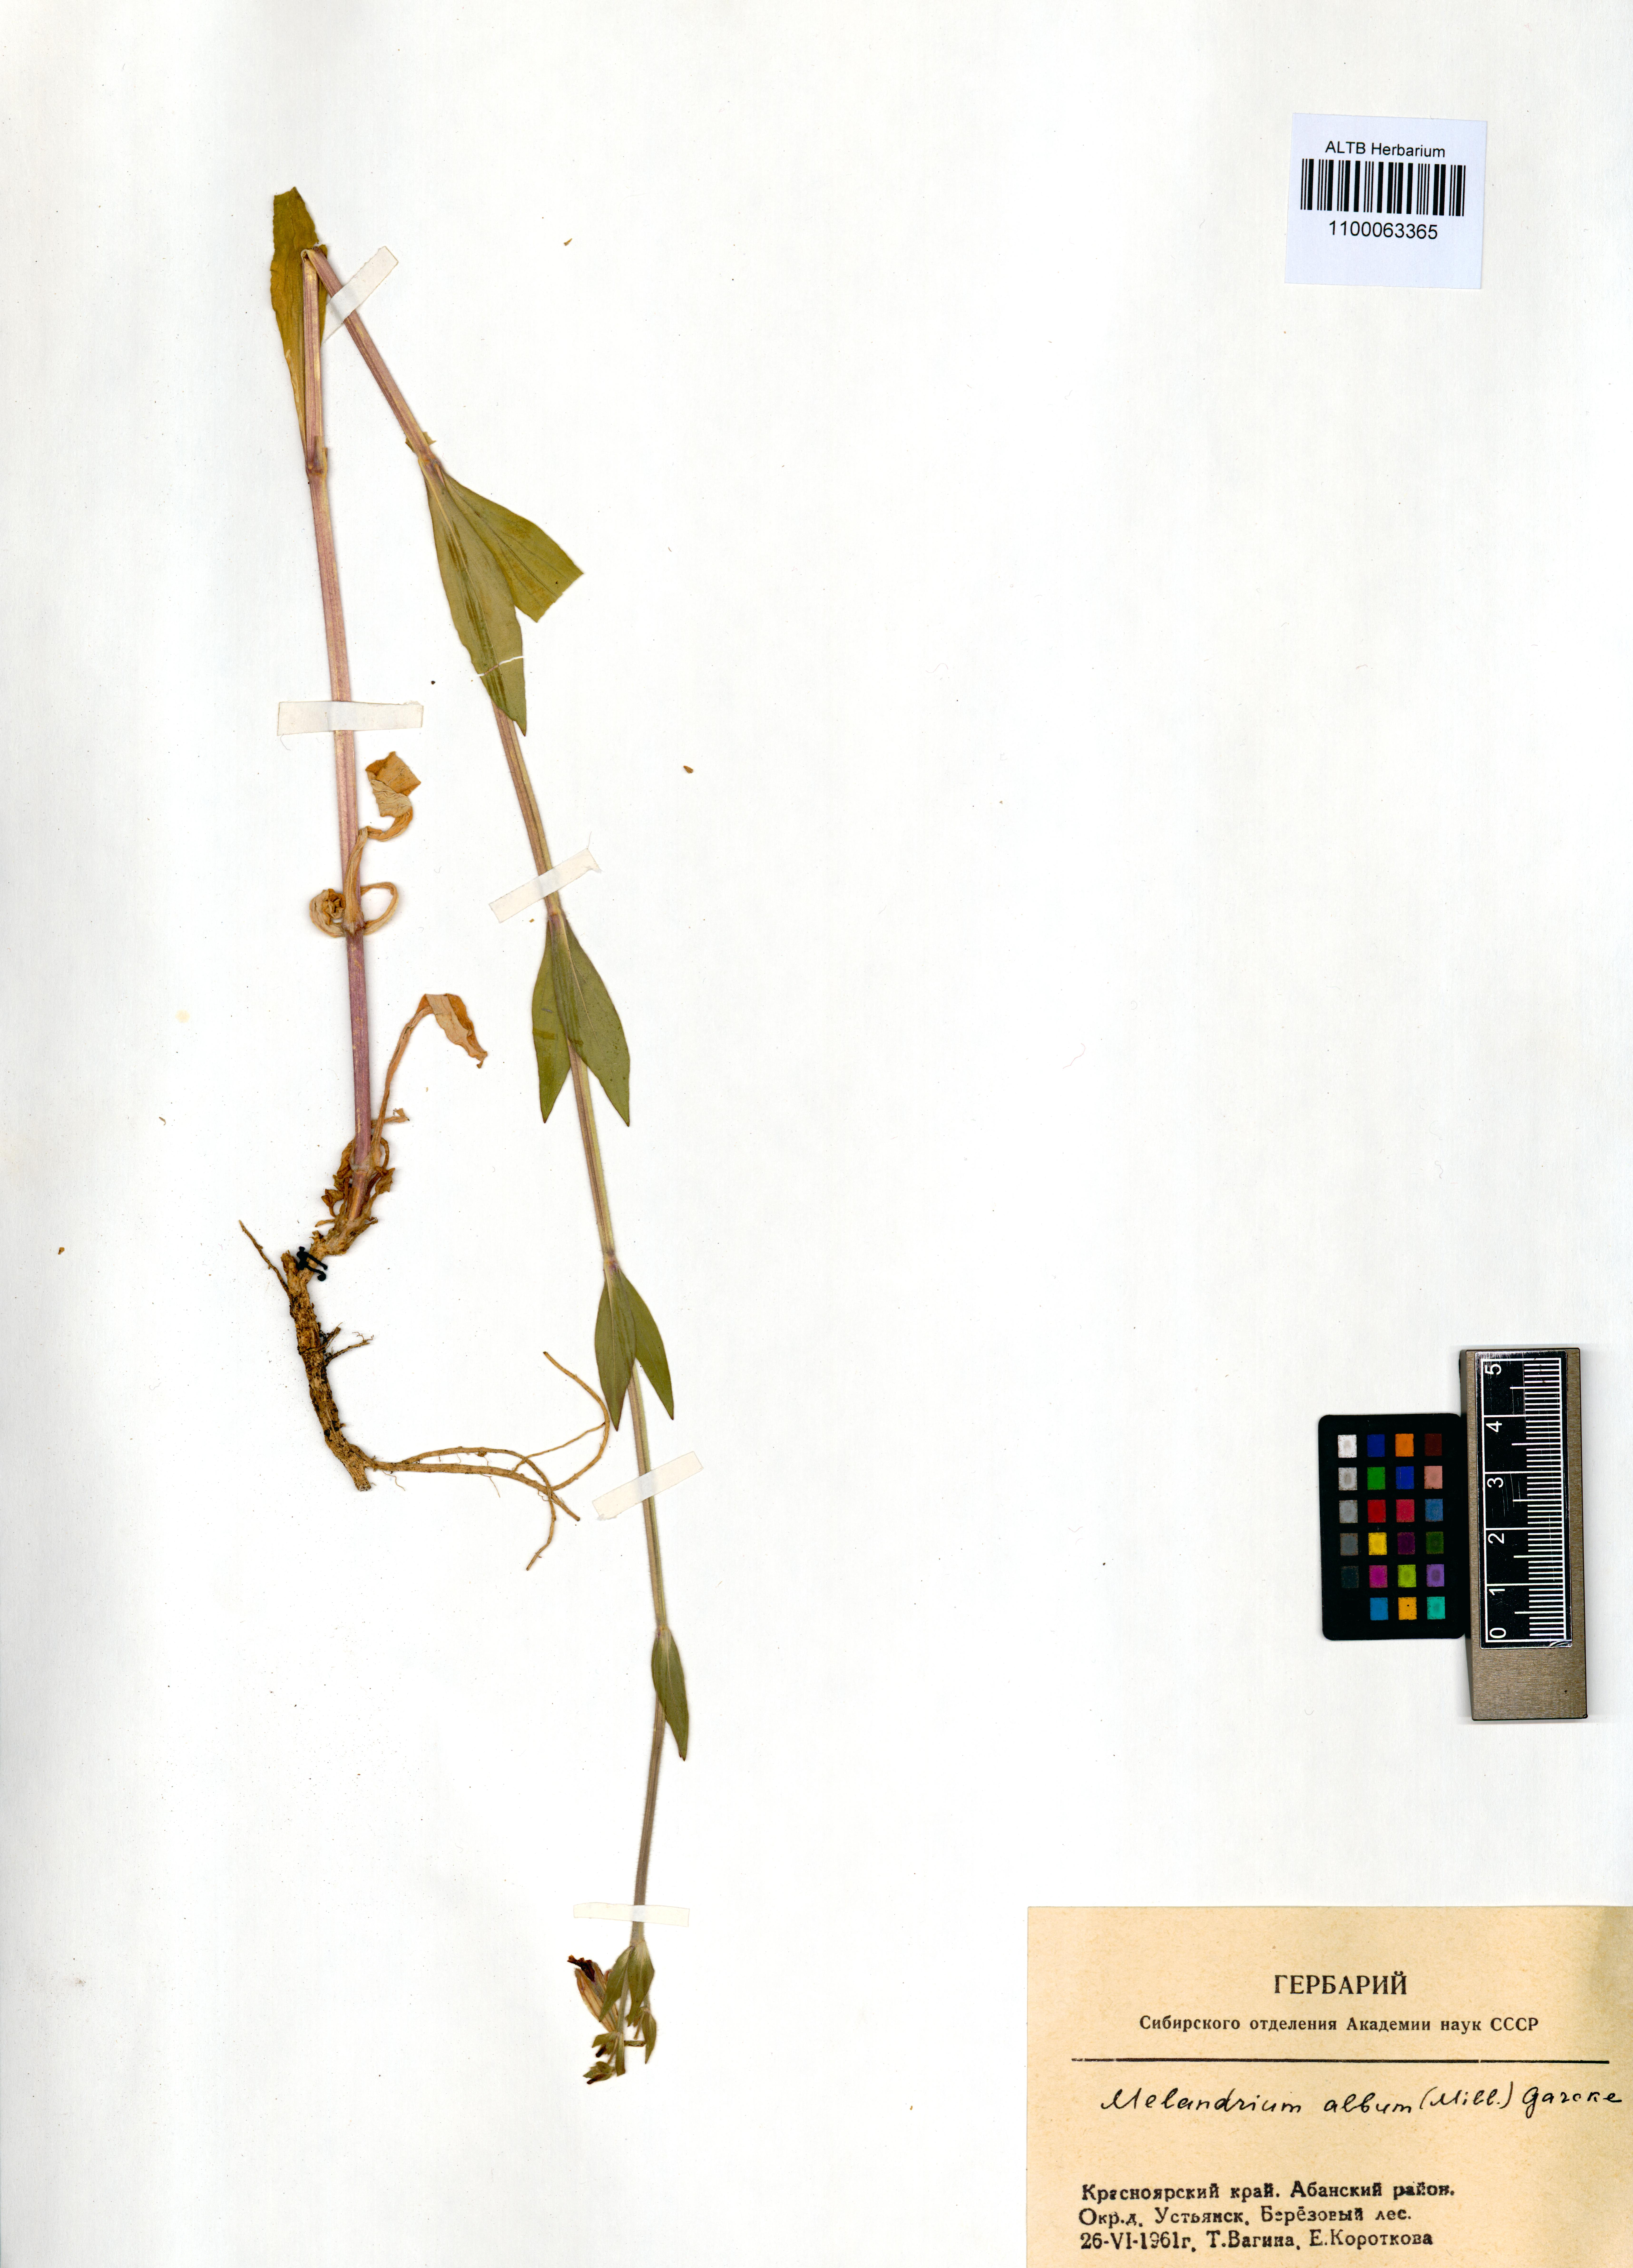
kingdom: Plantae
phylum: Tracheophyta
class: Magnoliopsida
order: Caryophyllales
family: Caryophyllaceae
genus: Silene
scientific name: Silene latifolia
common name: White campion
